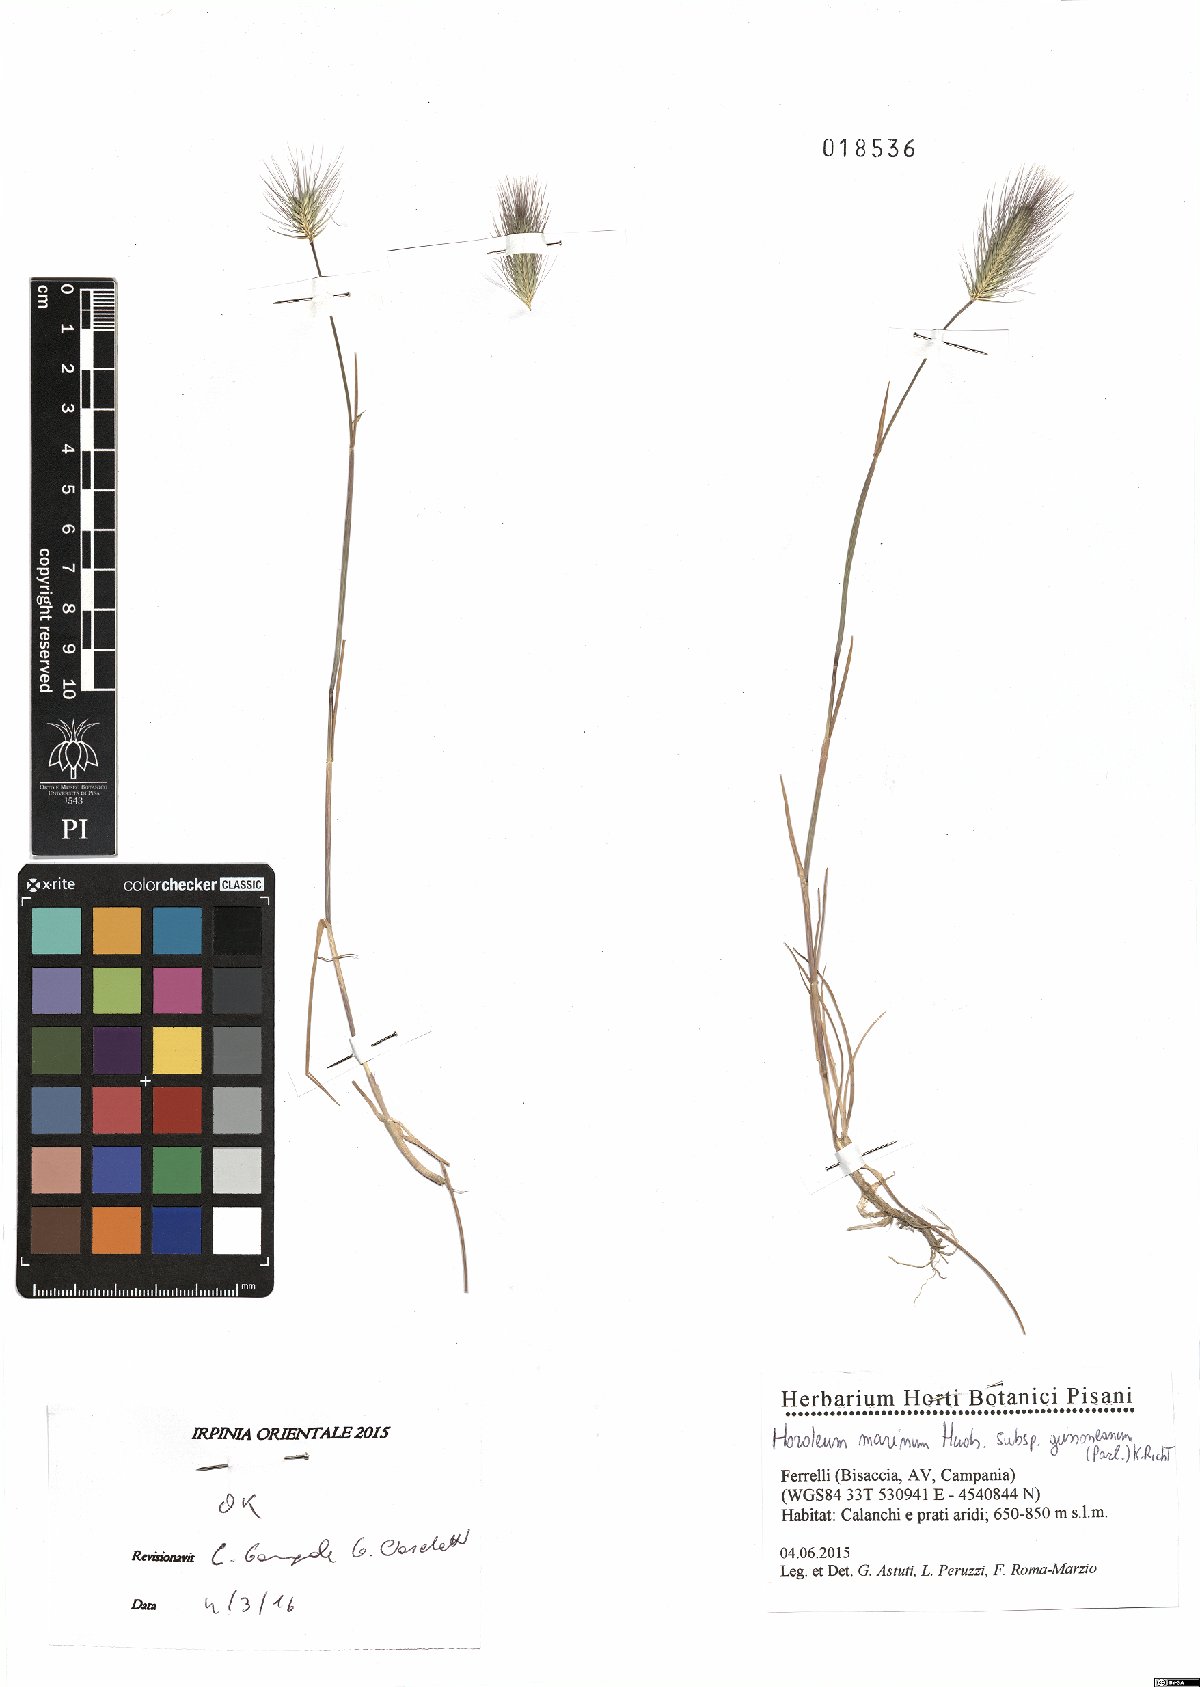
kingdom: Plantae
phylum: Tracheophyta
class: Liliopsida
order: Poales
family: Poaceae
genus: Hordeum
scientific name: Hordeum marinum
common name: Sea barley
